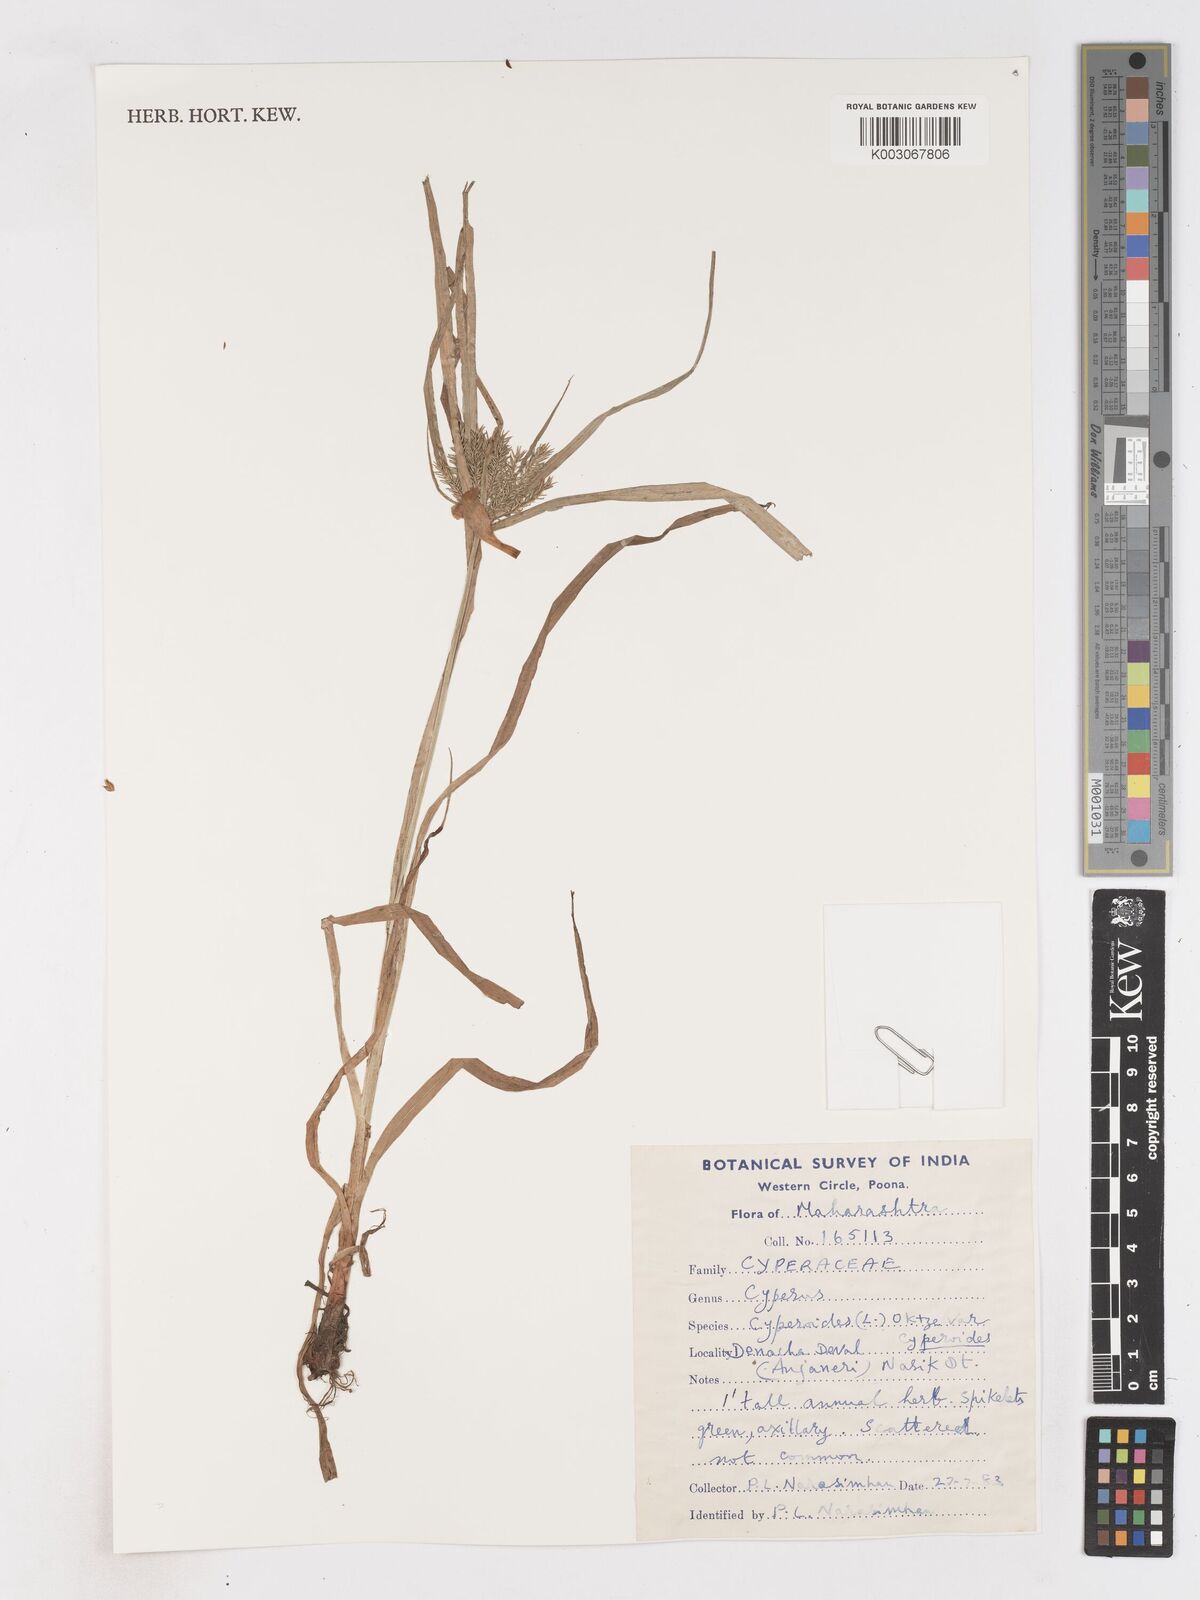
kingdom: Plantae
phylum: Tracheophyta
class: Liliopsida
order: Poales
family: Cyperaceae
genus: Cyperus
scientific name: Cyperus cyperoides
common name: Pacific island flat sedge
